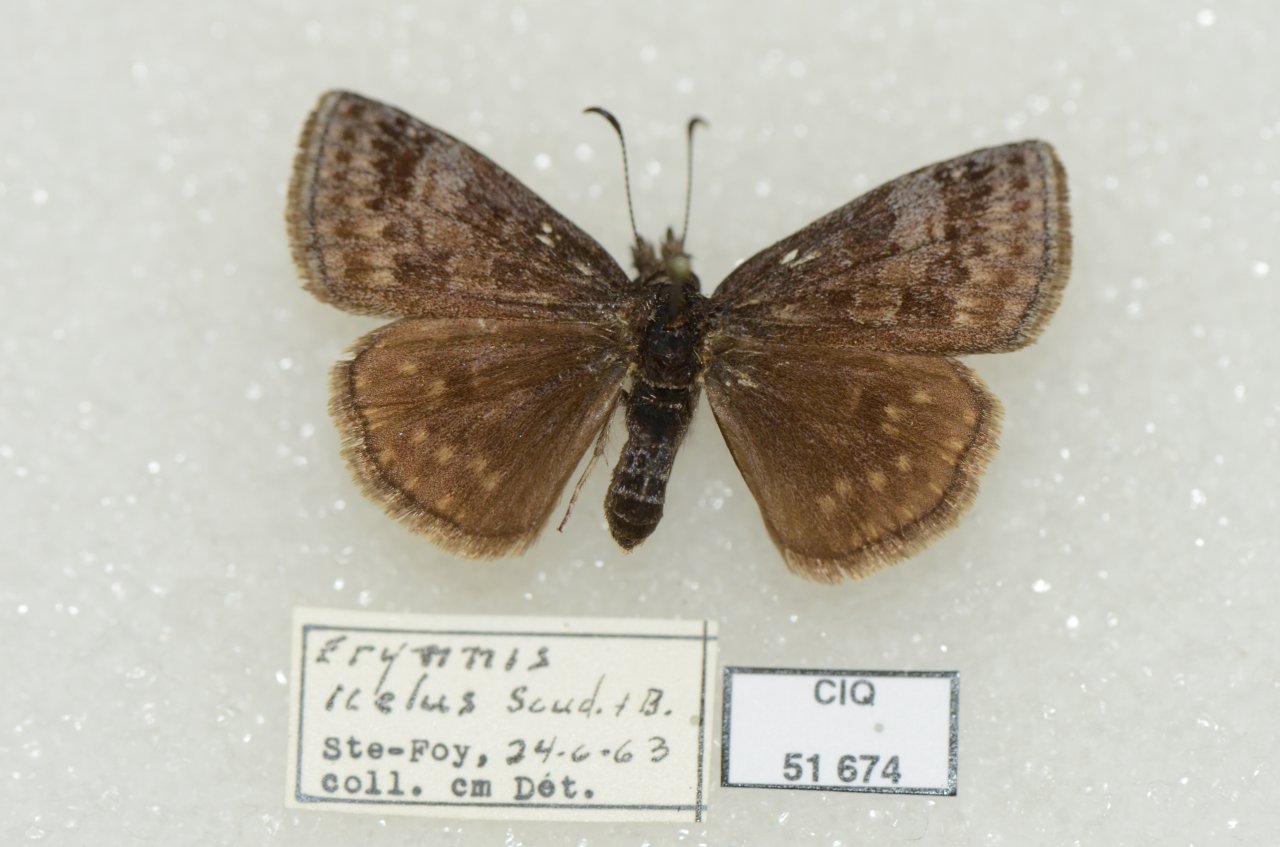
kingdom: Animalia
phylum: Arthropoda
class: Insecta
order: Lepidoptera
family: Hesperiidae
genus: Erynnis
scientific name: Erynnis icelus
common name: Dreamy Duskywing
